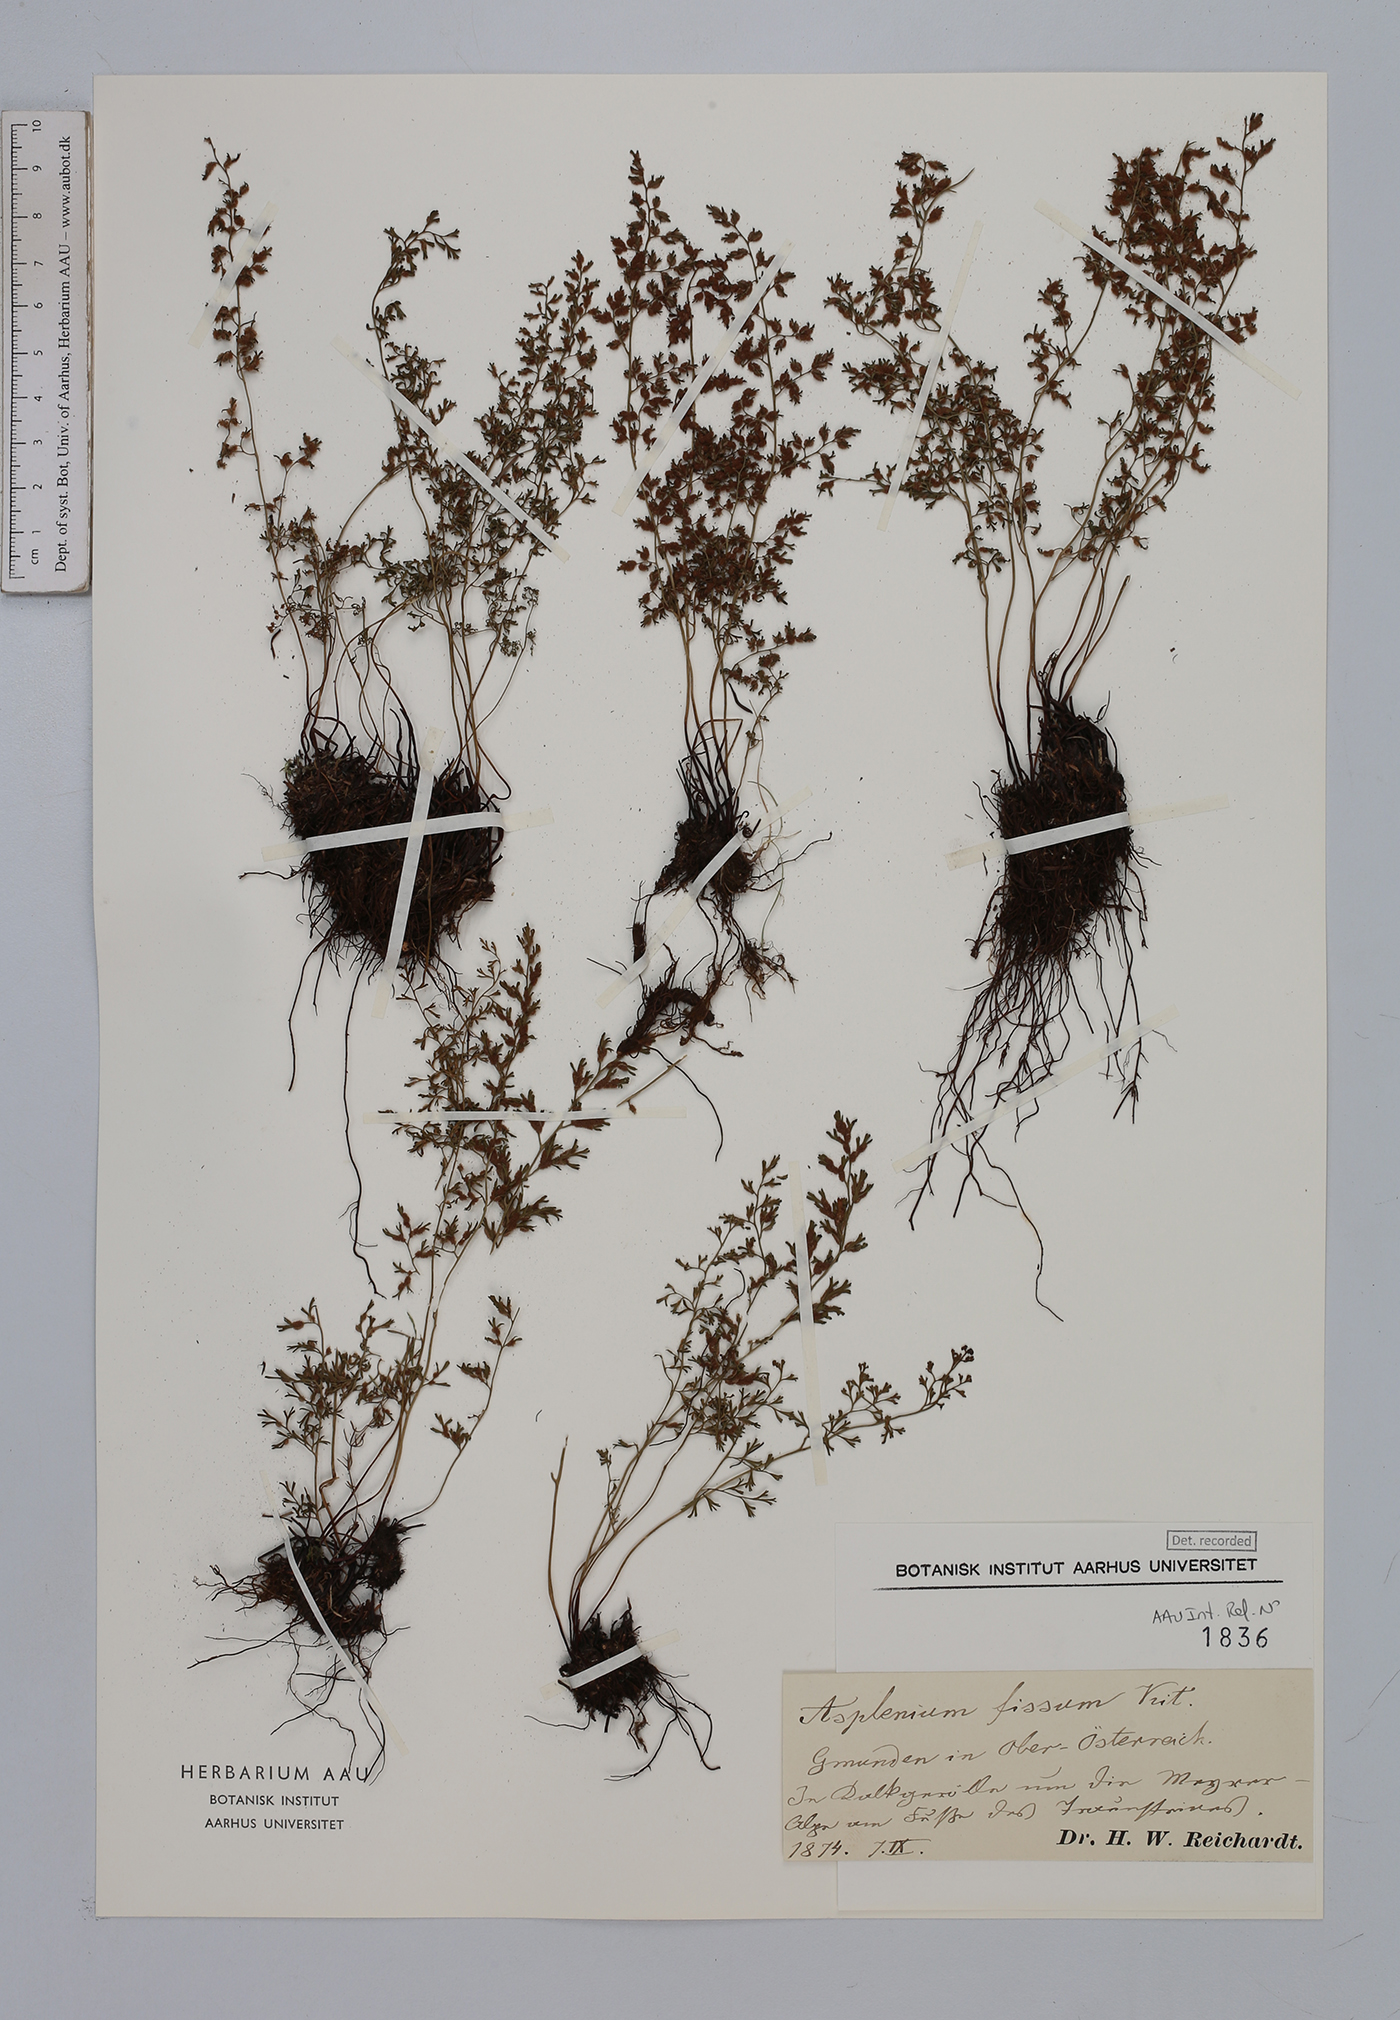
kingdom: Plantae
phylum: Tracheophyta
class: Polypodiopsida
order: Polypodiales
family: Aspleniaceae
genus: Asplenium
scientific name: Asplenium fissum
